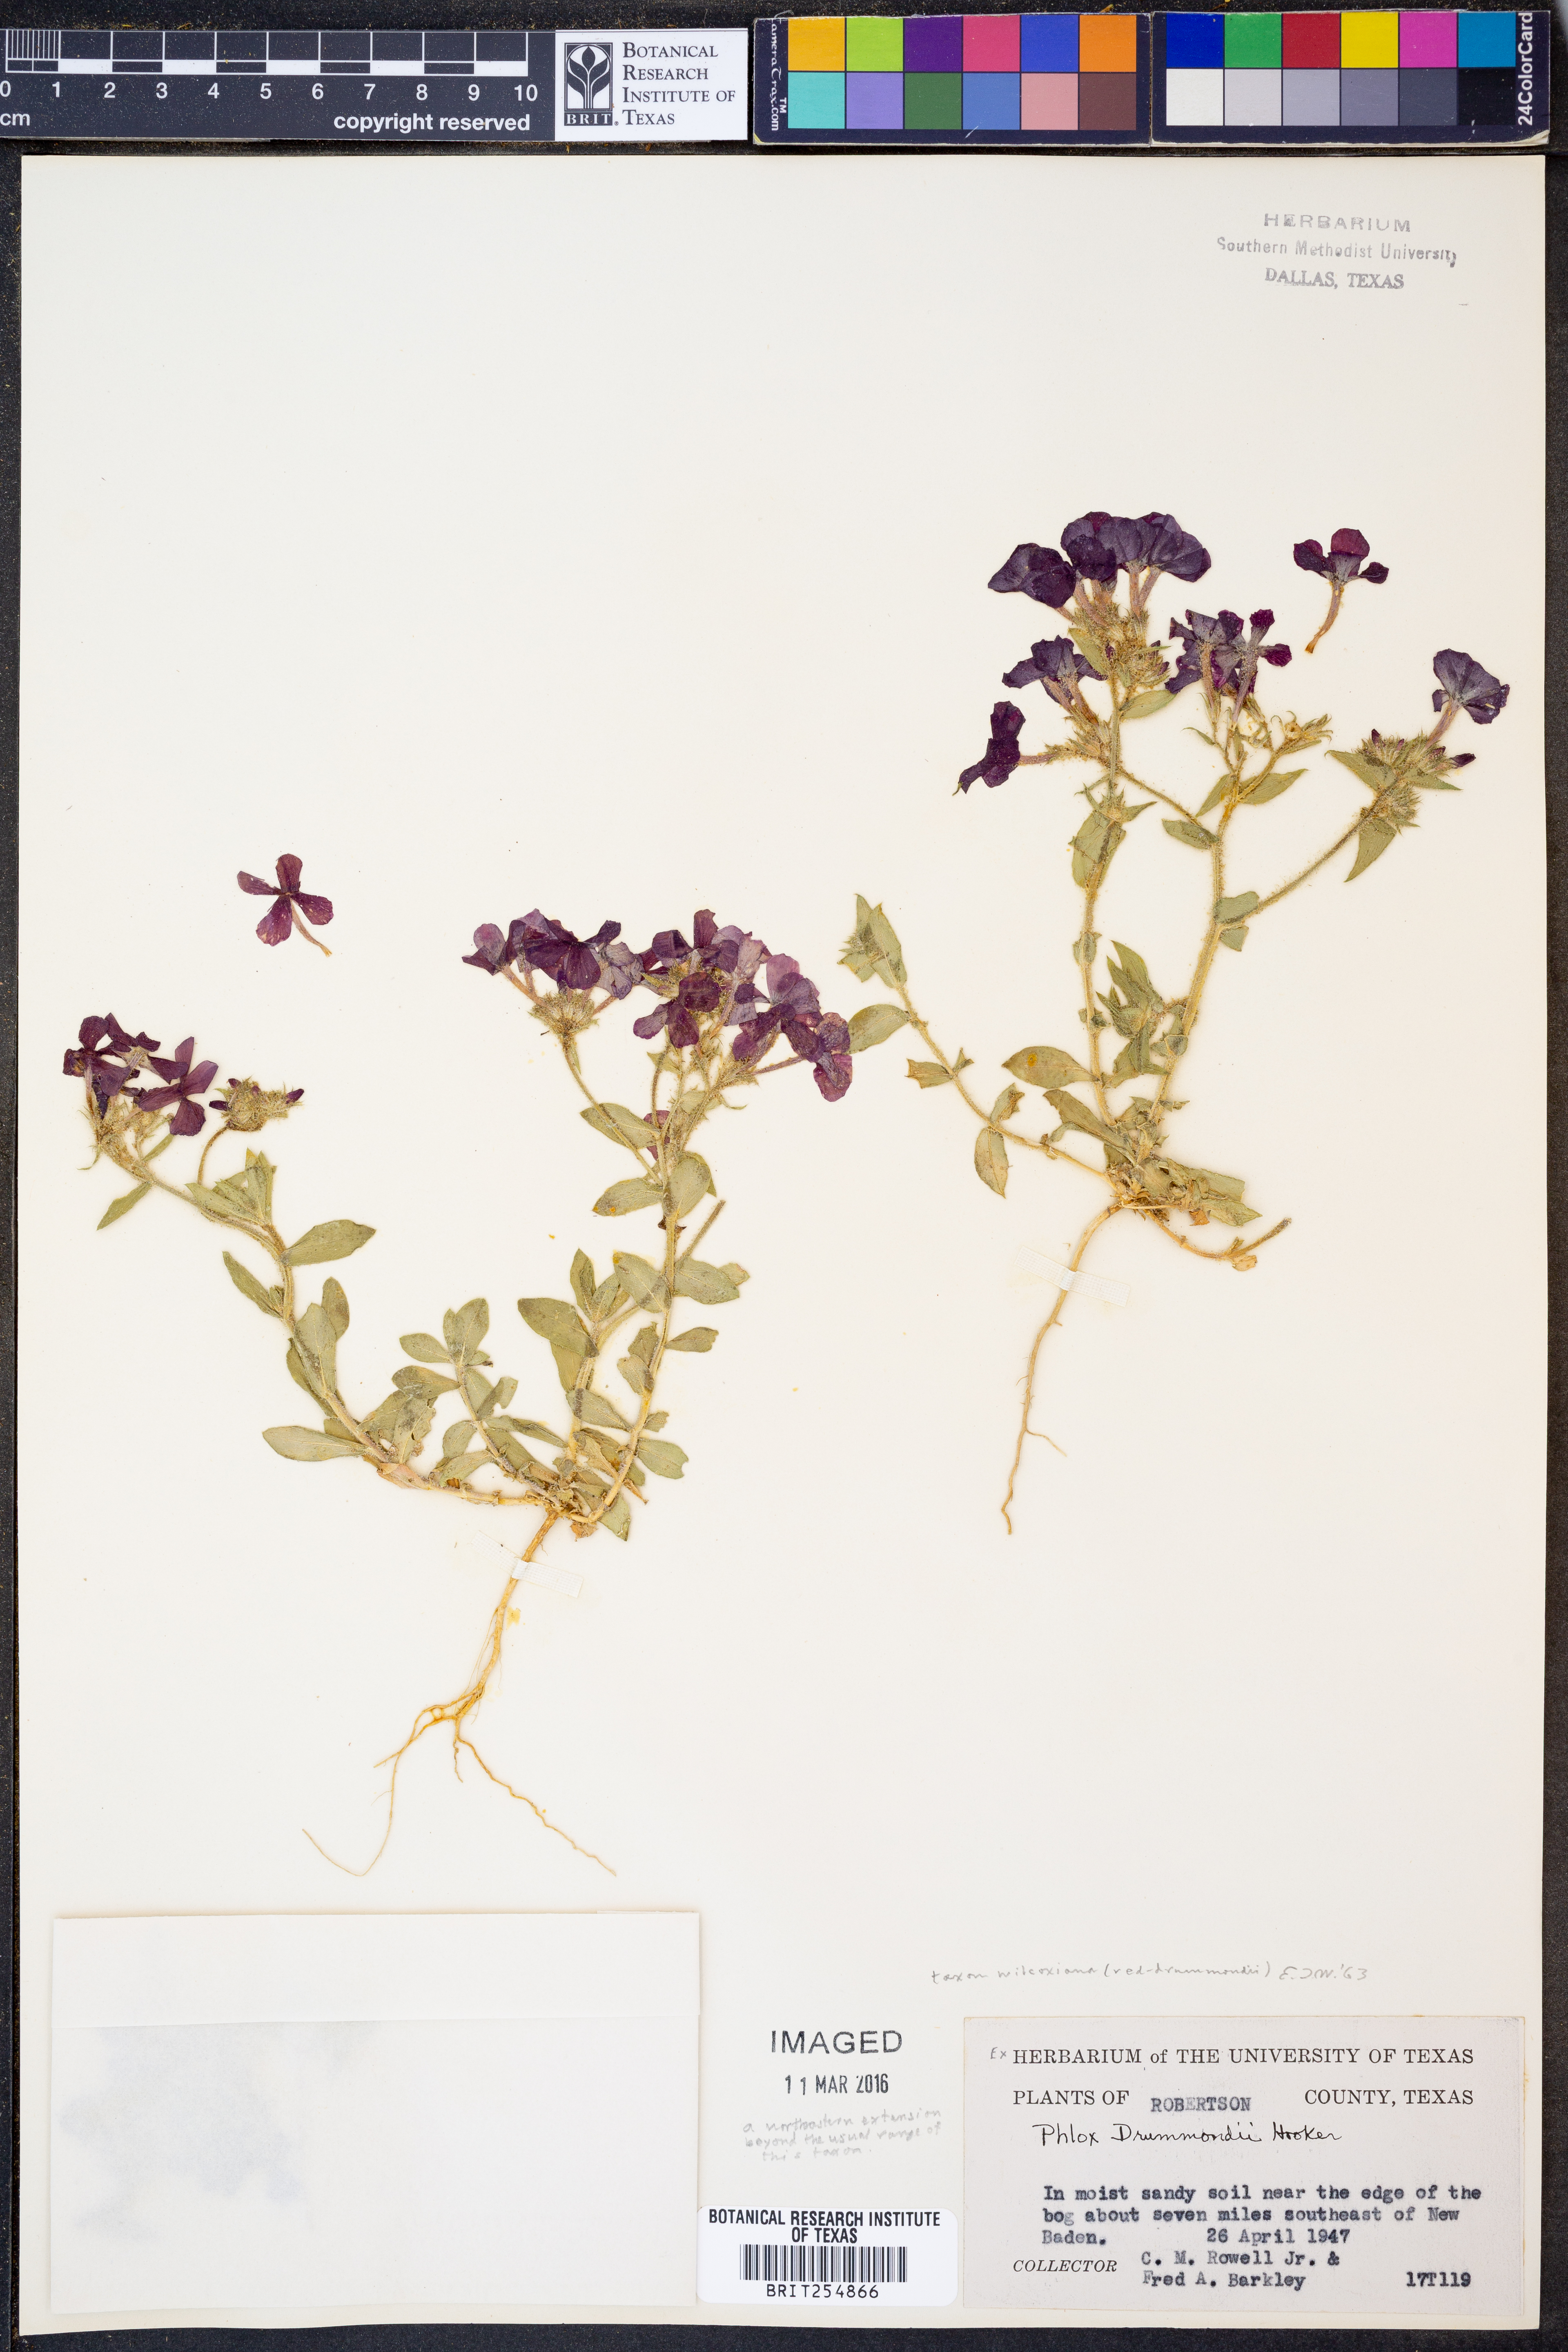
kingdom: Plantae
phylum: Tracheophyta
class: Magnoliopsida
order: Ericales
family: Polemoniaceae
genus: Phlox
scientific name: Phlox drummondii
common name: Drummond's phlox
